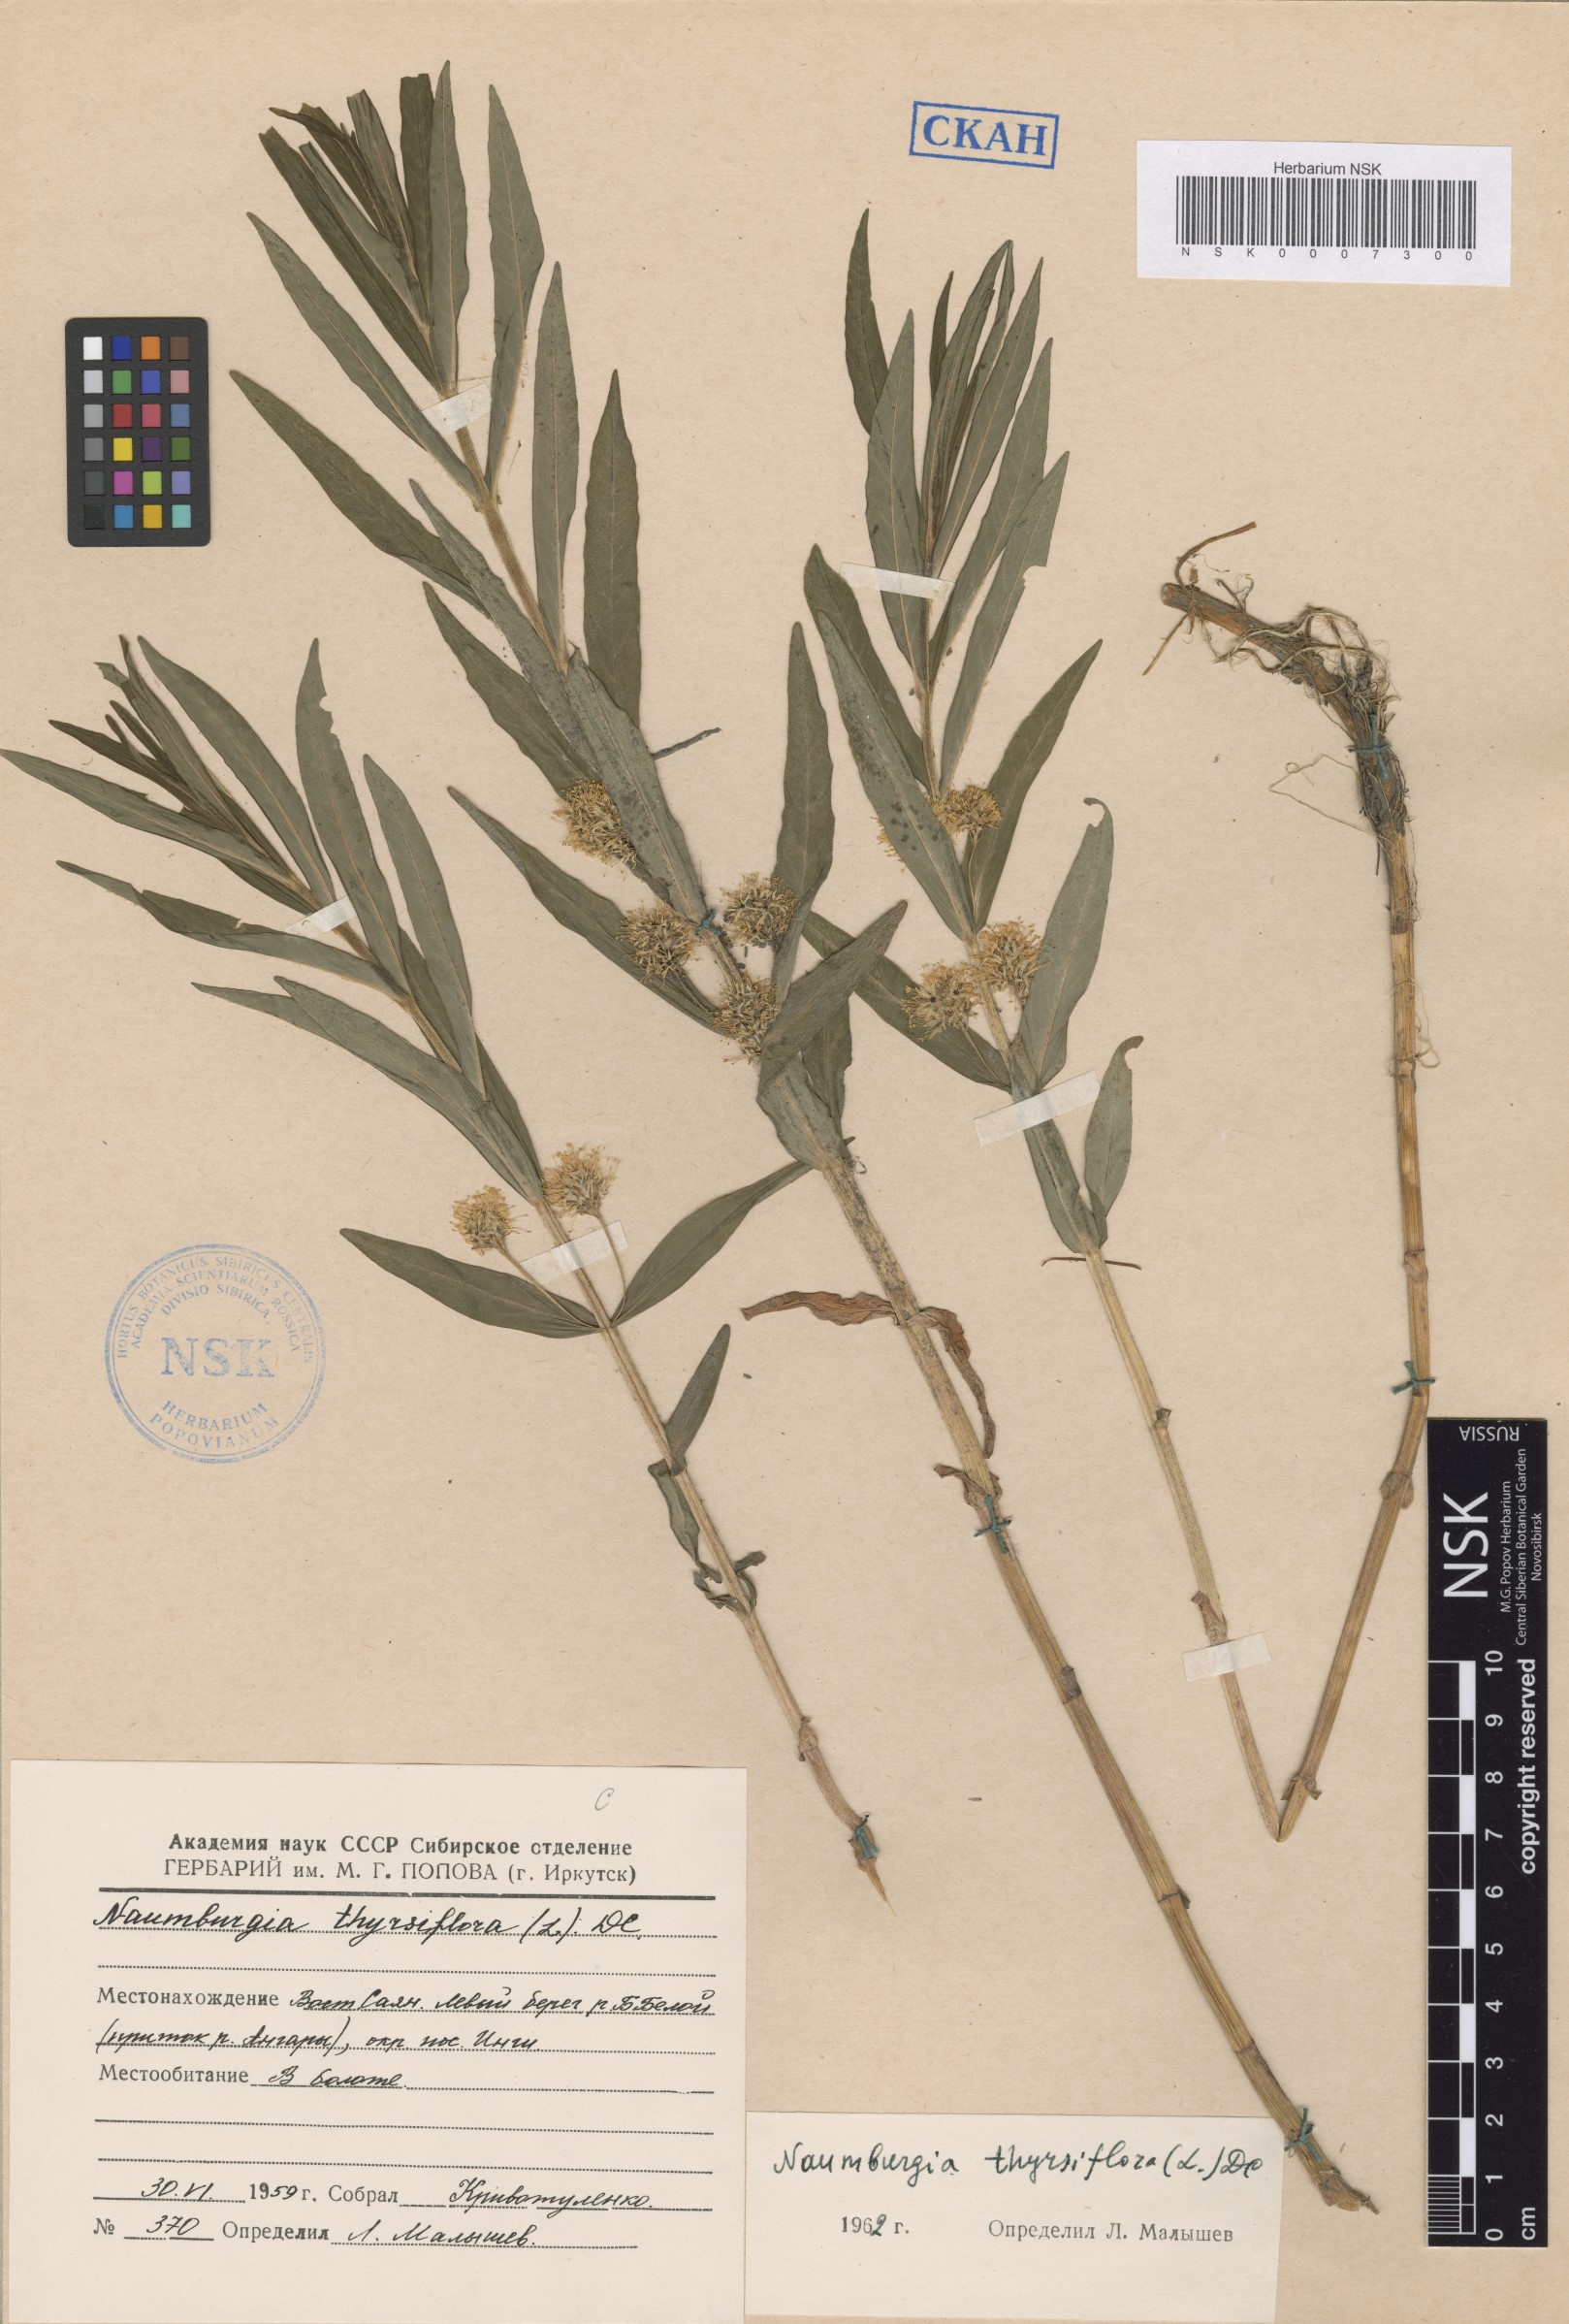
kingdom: Plantae
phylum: Tracheophyta
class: Magnoliopsida
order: Ericales
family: Primulaceae
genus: Lysimachia
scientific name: Lysimachia thyrsiflora
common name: Tufted loosestrife
